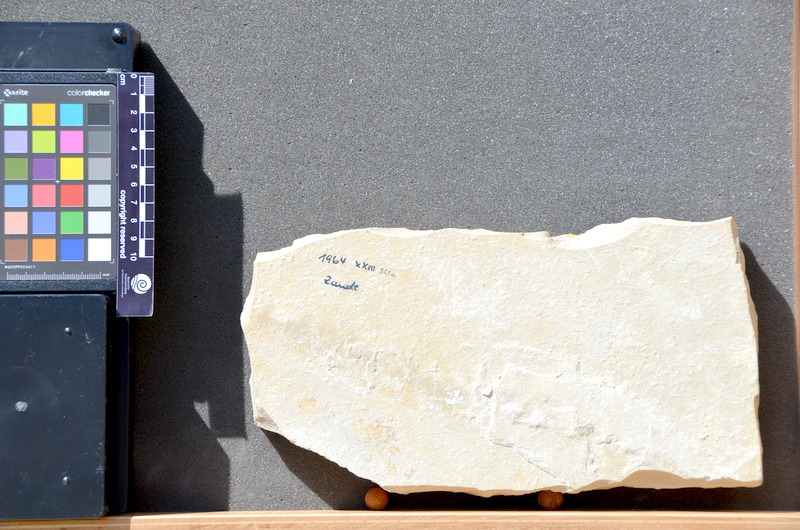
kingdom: Animalia
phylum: Chordata
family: Aspidorhynchidae
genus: Belonostomus
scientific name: Belonostomus
